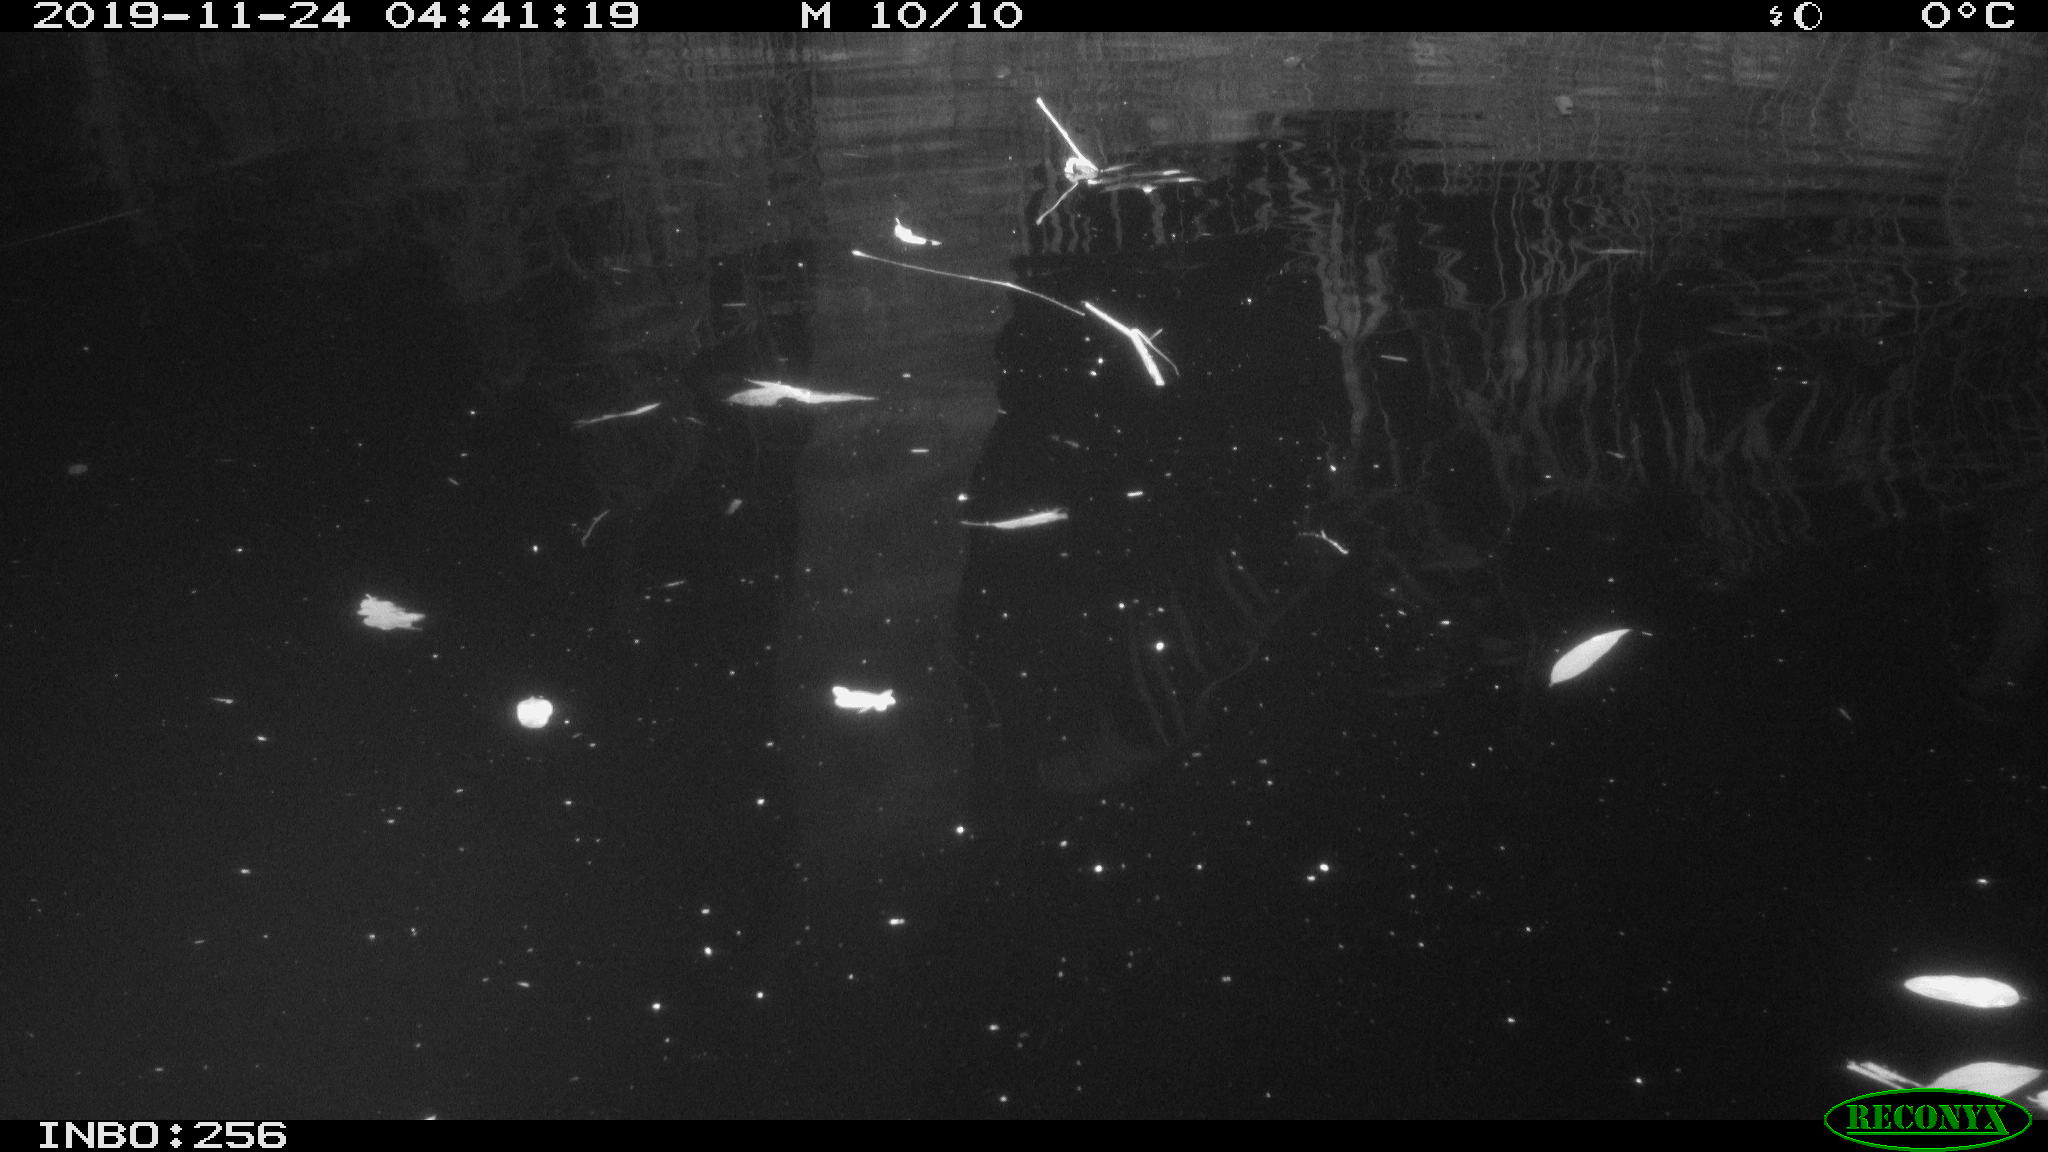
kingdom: Animalia
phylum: Chordata
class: Mammalia
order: Rodentia
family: Cricetidae
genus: Ondatra
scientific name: Ondatra zibethicus
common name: Muskrat
